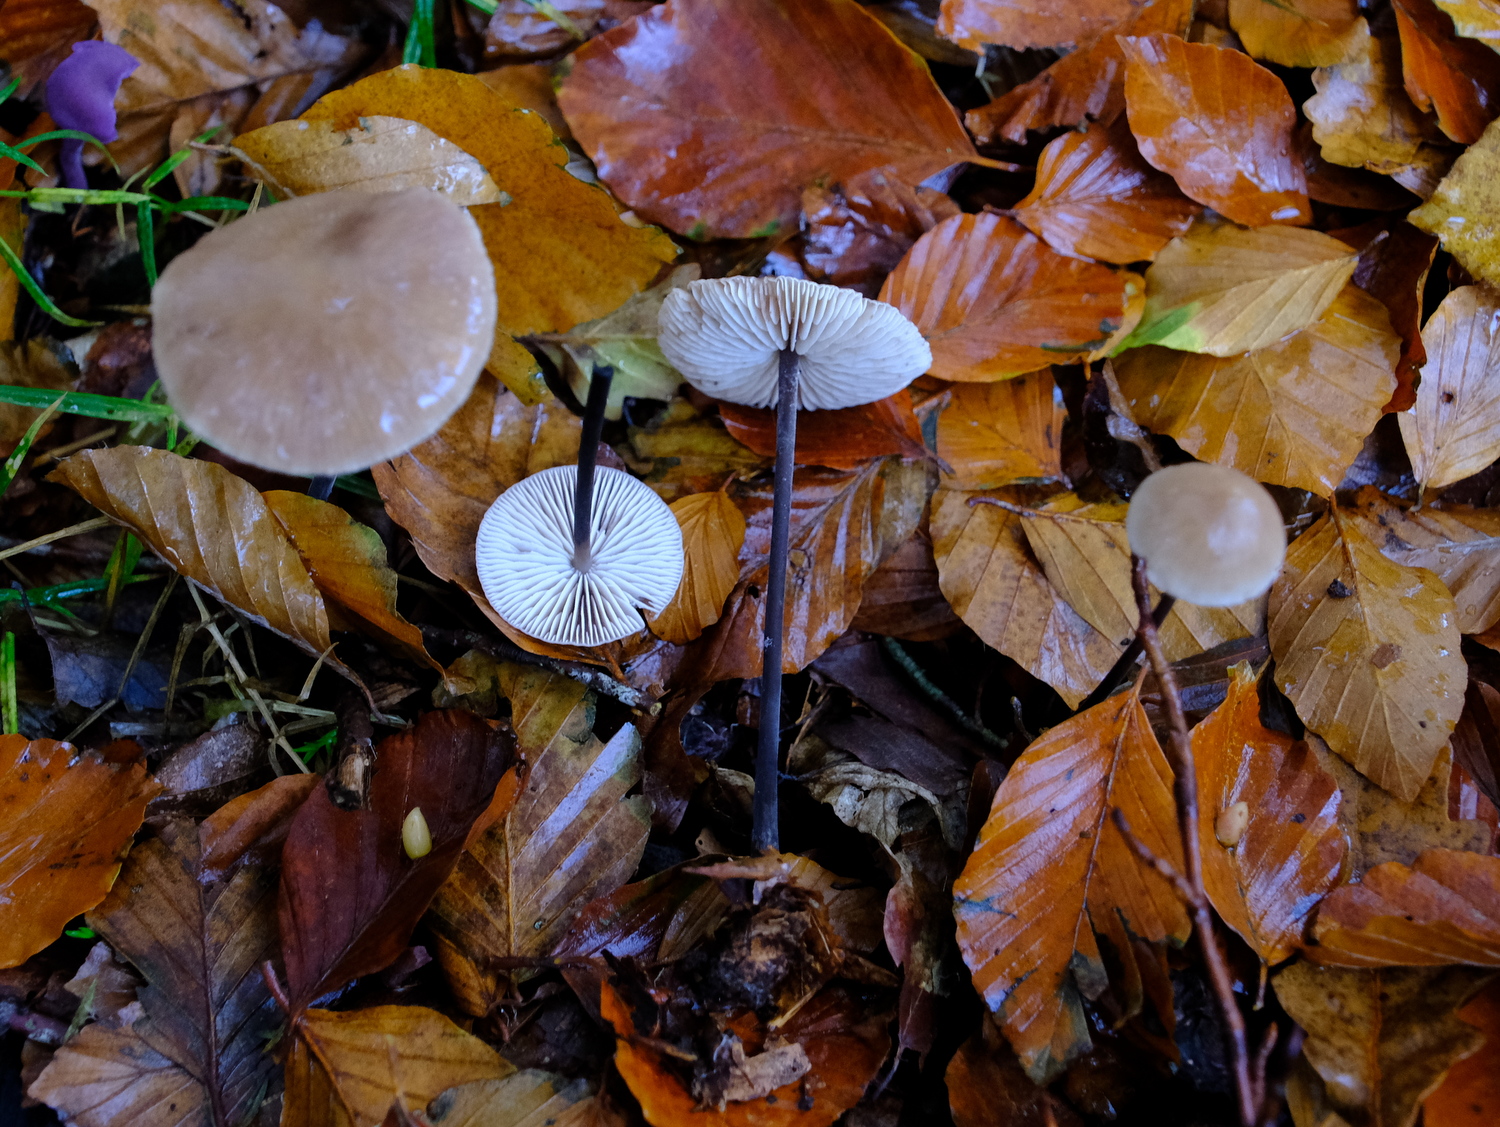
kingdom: Fungi
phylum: Basidiomycota
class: Agaricomycetes
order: Agaricales
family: Omphalotaceae
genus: Mycetinis
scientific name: Mycetinis alliaceus
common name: stor løghat
